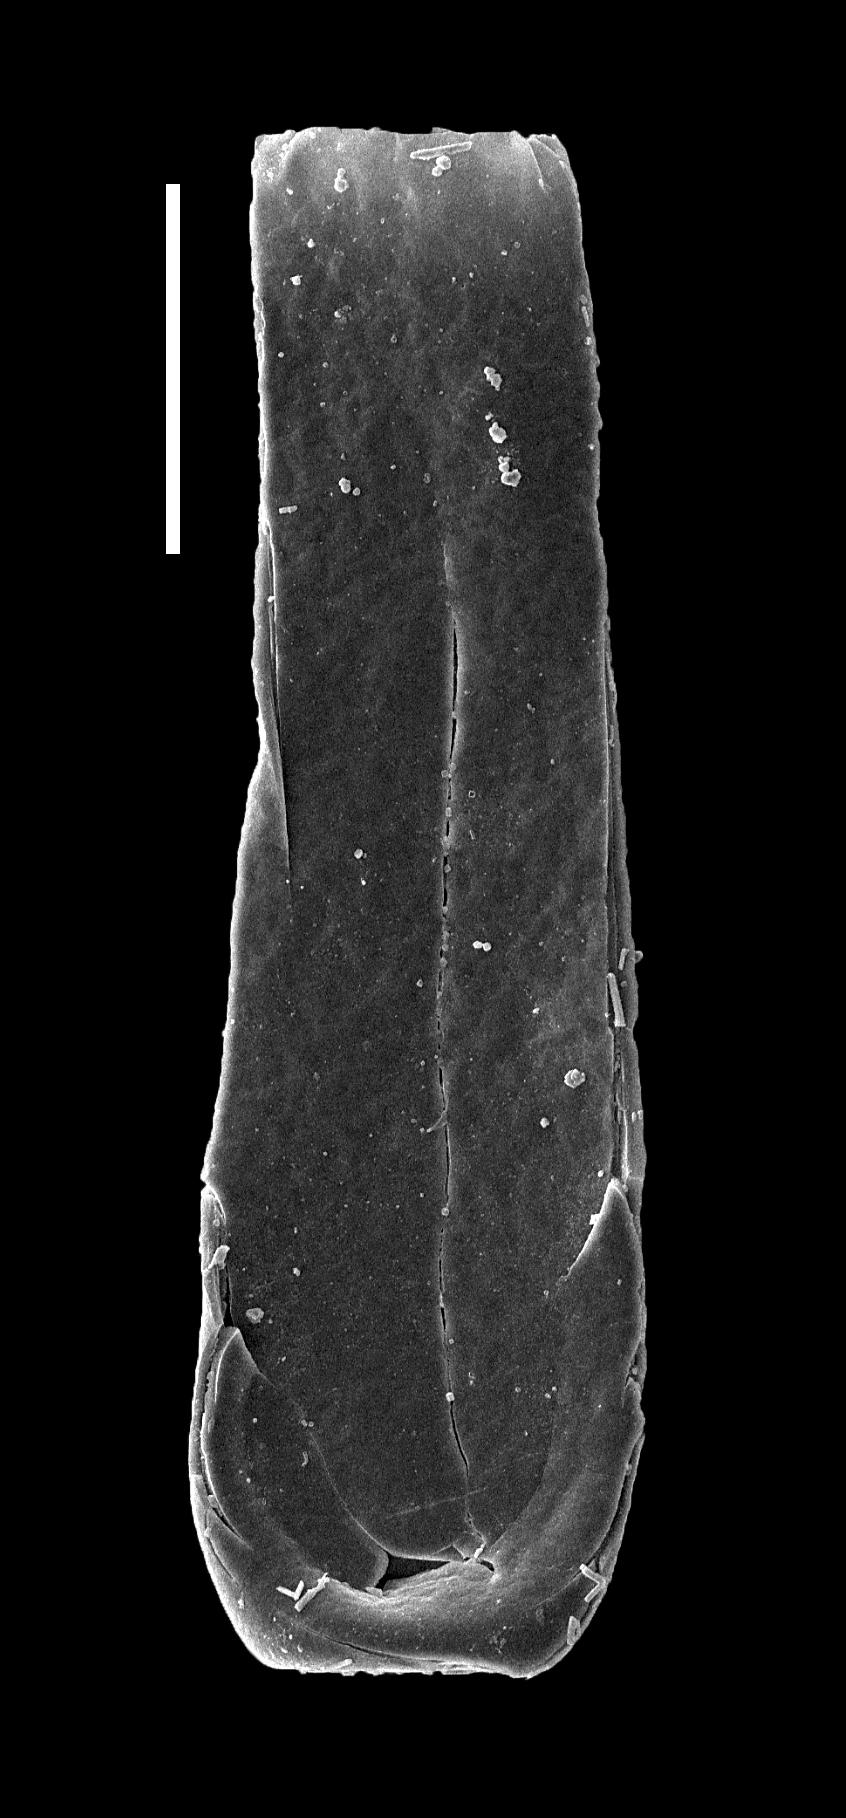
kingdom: Animalia
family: Desmochitinidae
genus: Calpichitina
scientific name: Calpichitina
